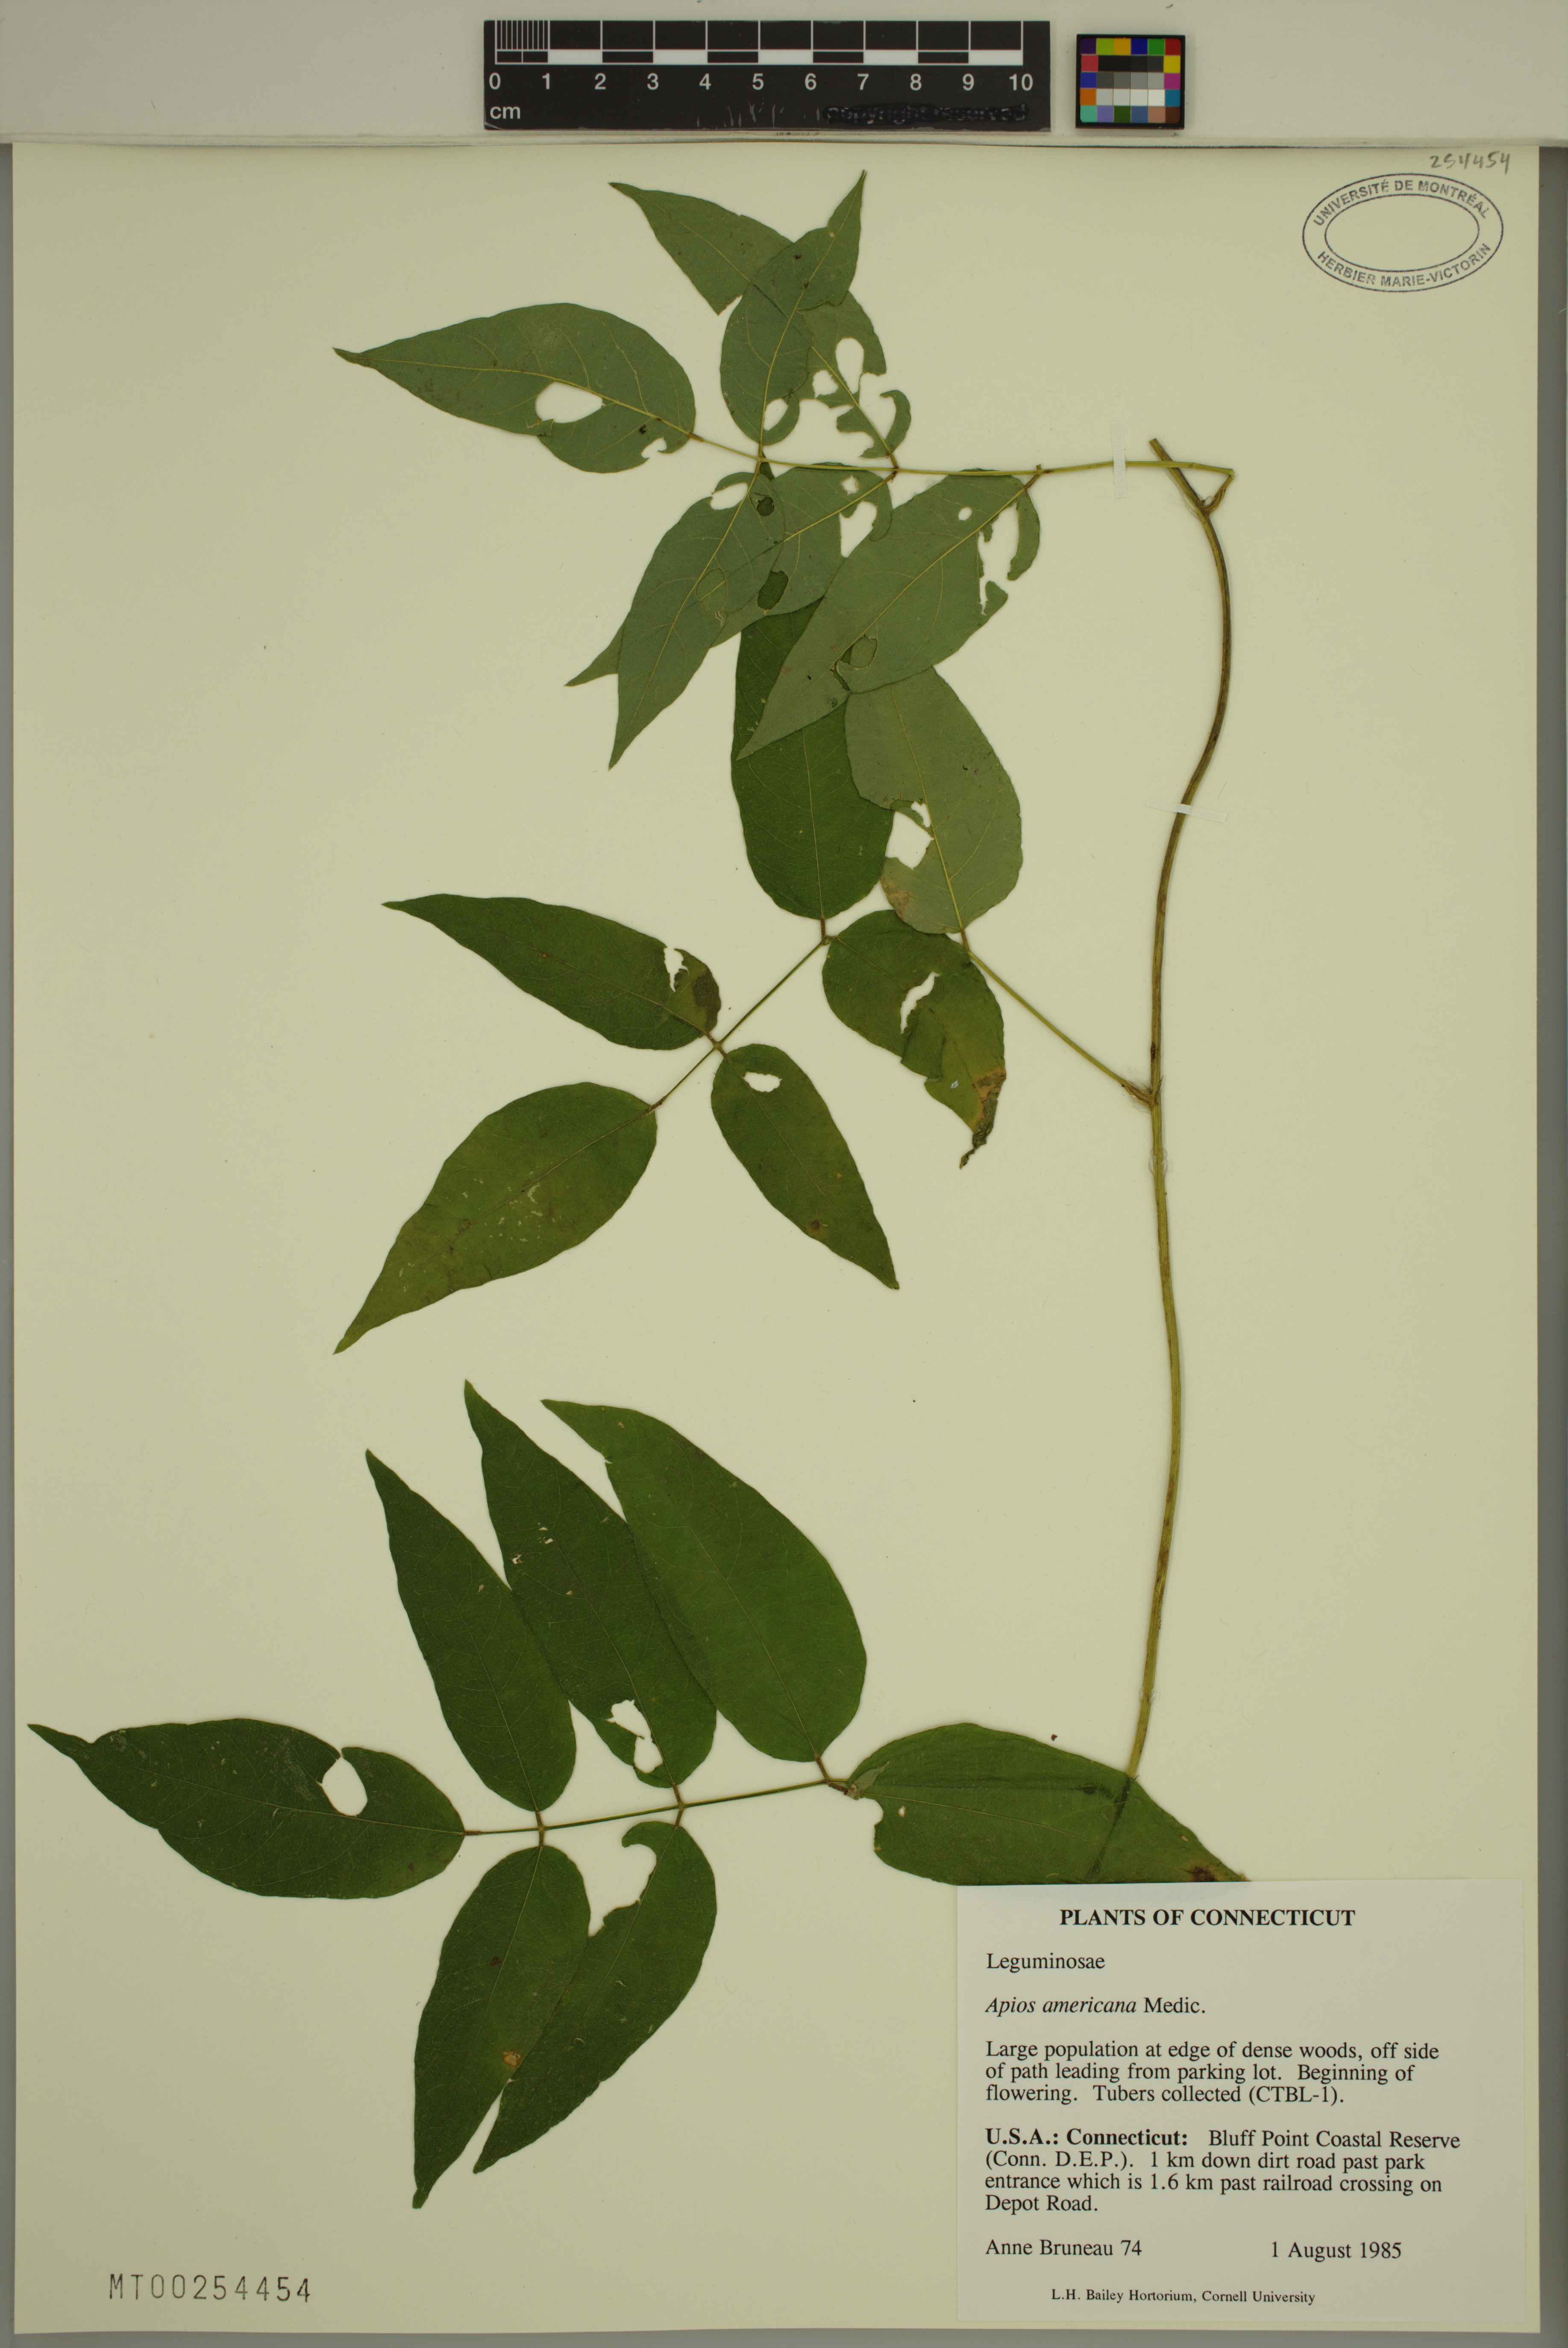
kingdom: Plantae
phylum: Tracheophyta
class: Magnoliopsida
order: Fabales
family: Fabaceae
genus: Apios
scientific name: Apios americana
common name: American potato-bean
